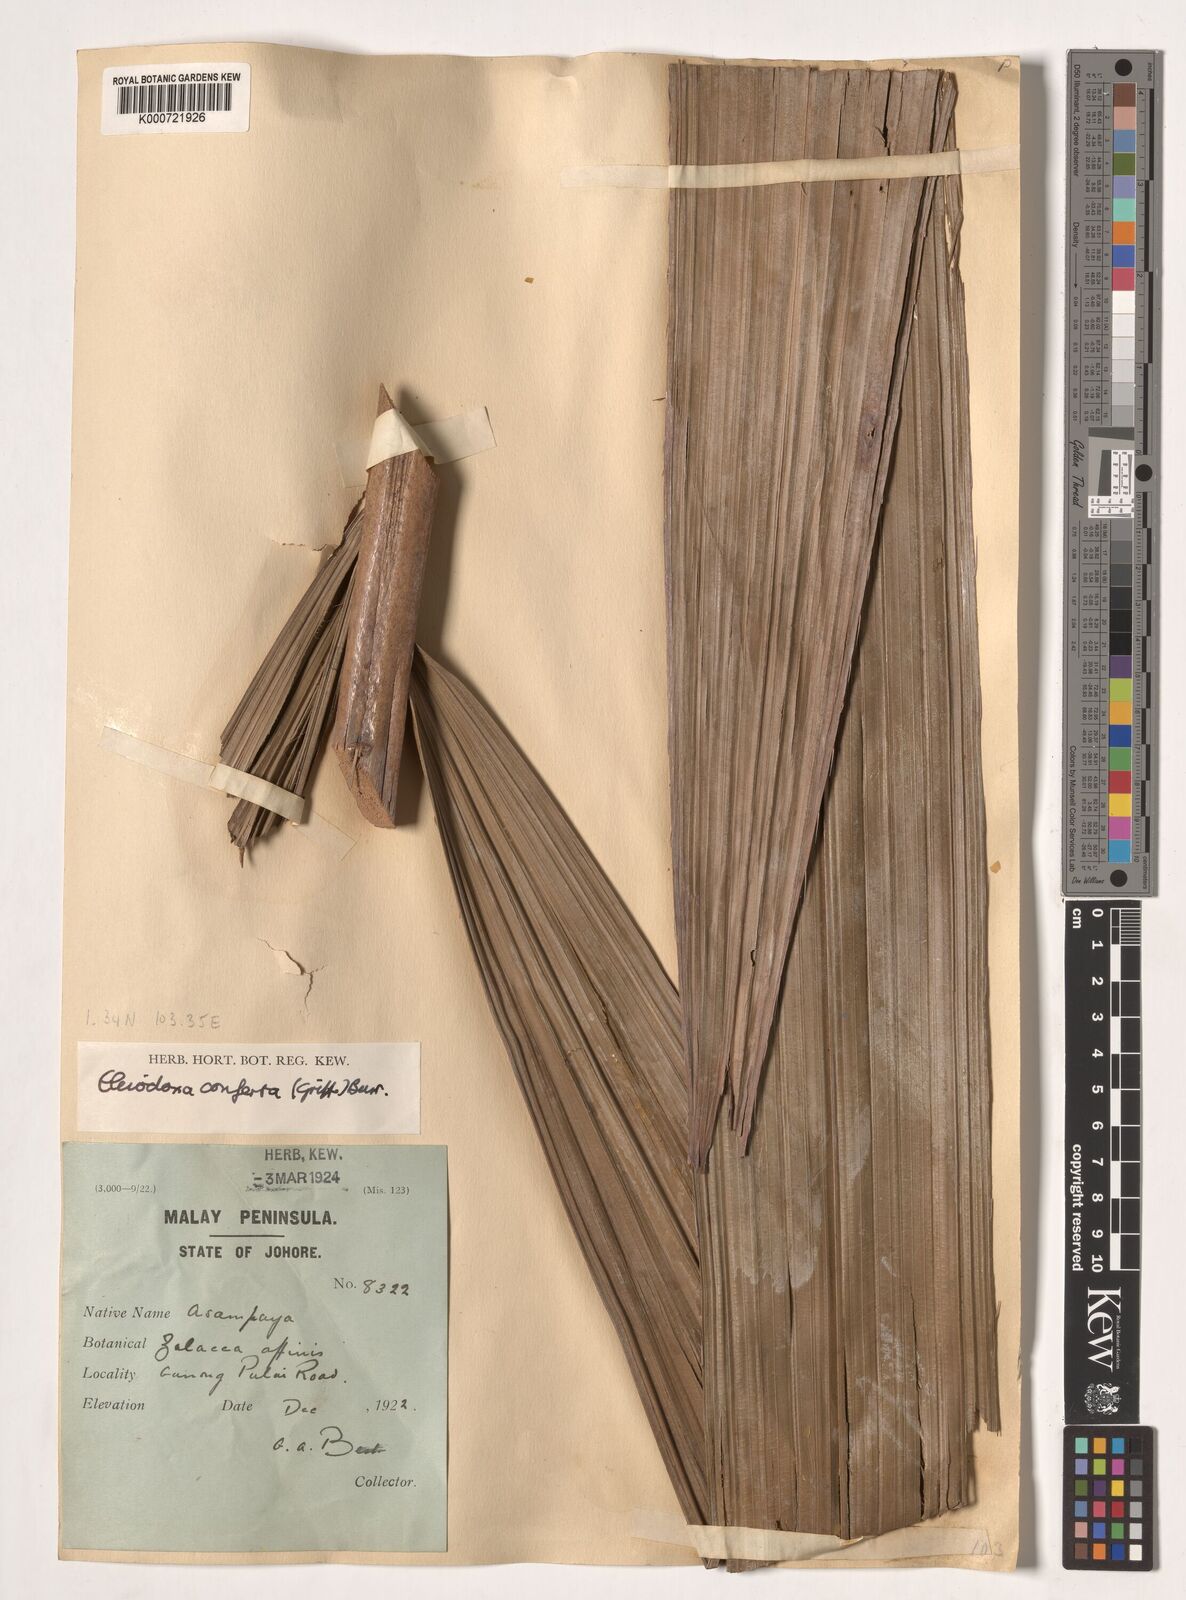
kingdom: Plantae
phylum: Tracheophyta
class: Liliopsida
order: Arecales
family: Arecaceae
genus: Eleiodoxa
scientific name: Eleiodoxa conferta
